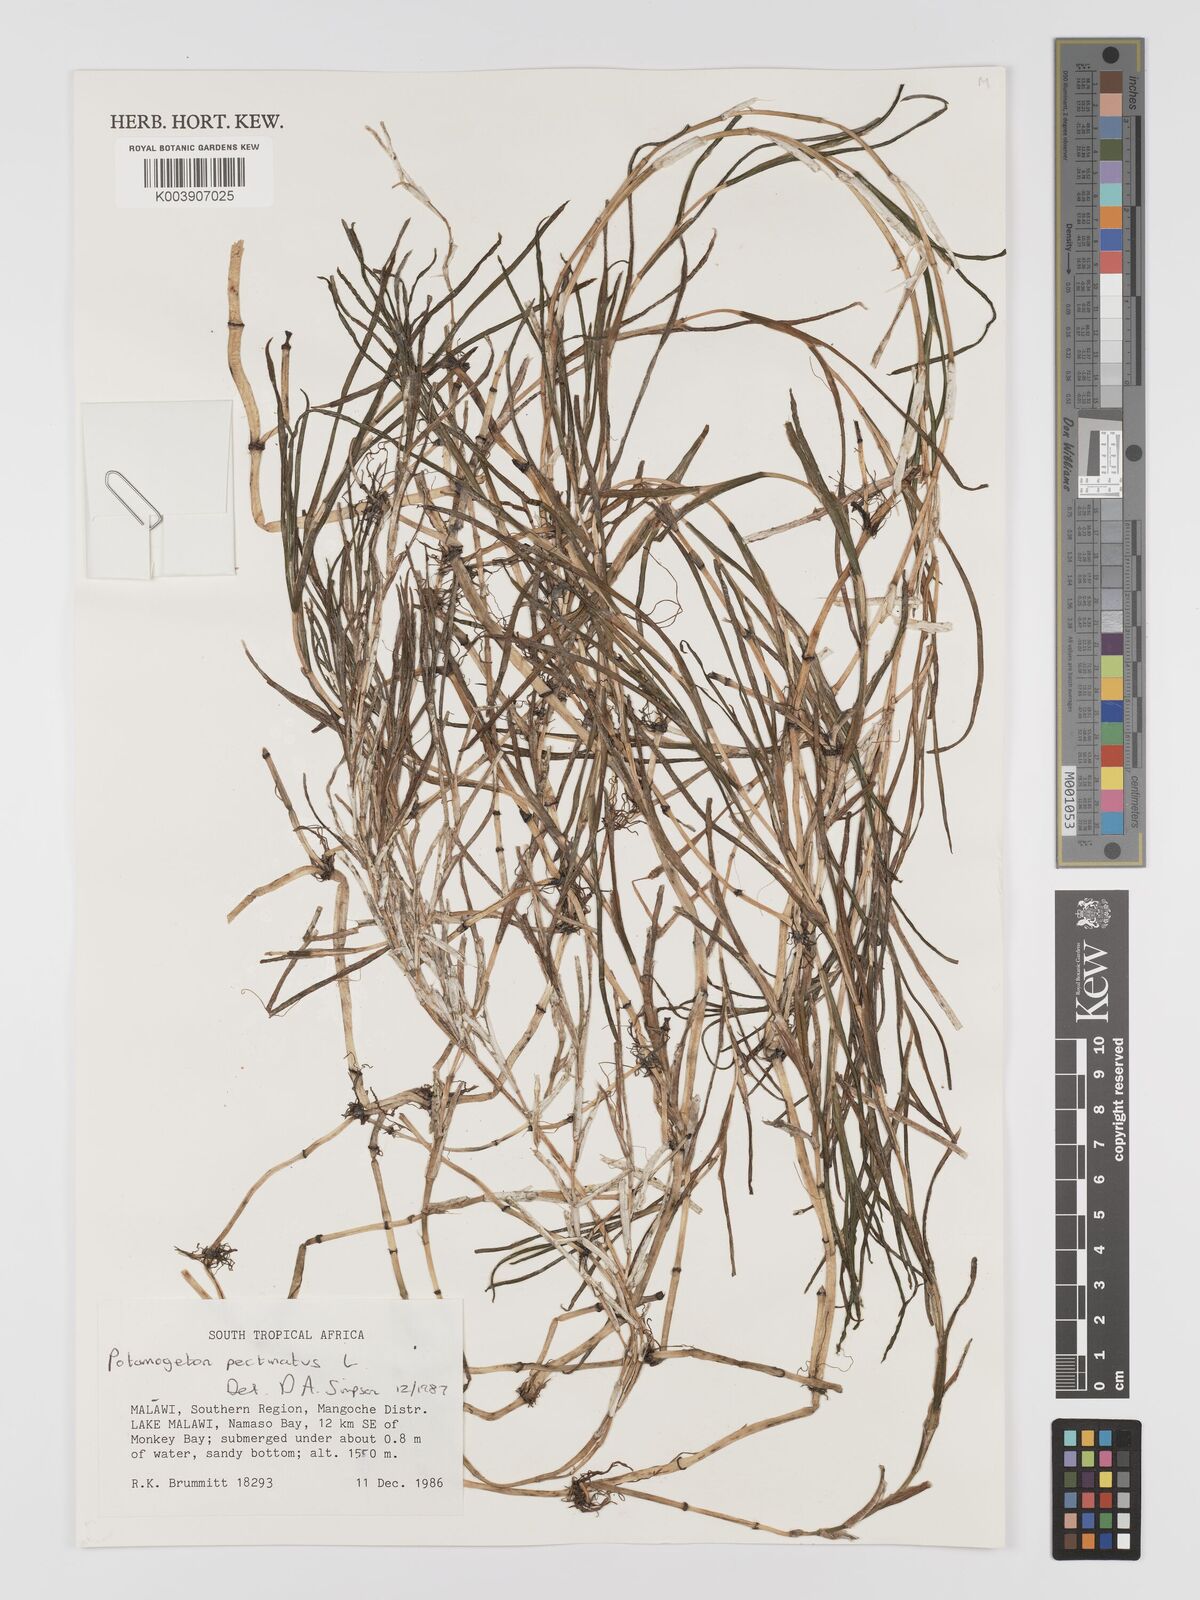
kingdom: Plantae
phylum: Tracheophyta
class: Liliopsida
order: Alismatales
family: Potamogetonaceae
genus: Stuckenia
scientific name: Stuckenia pectinata
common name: Sago pondweed
